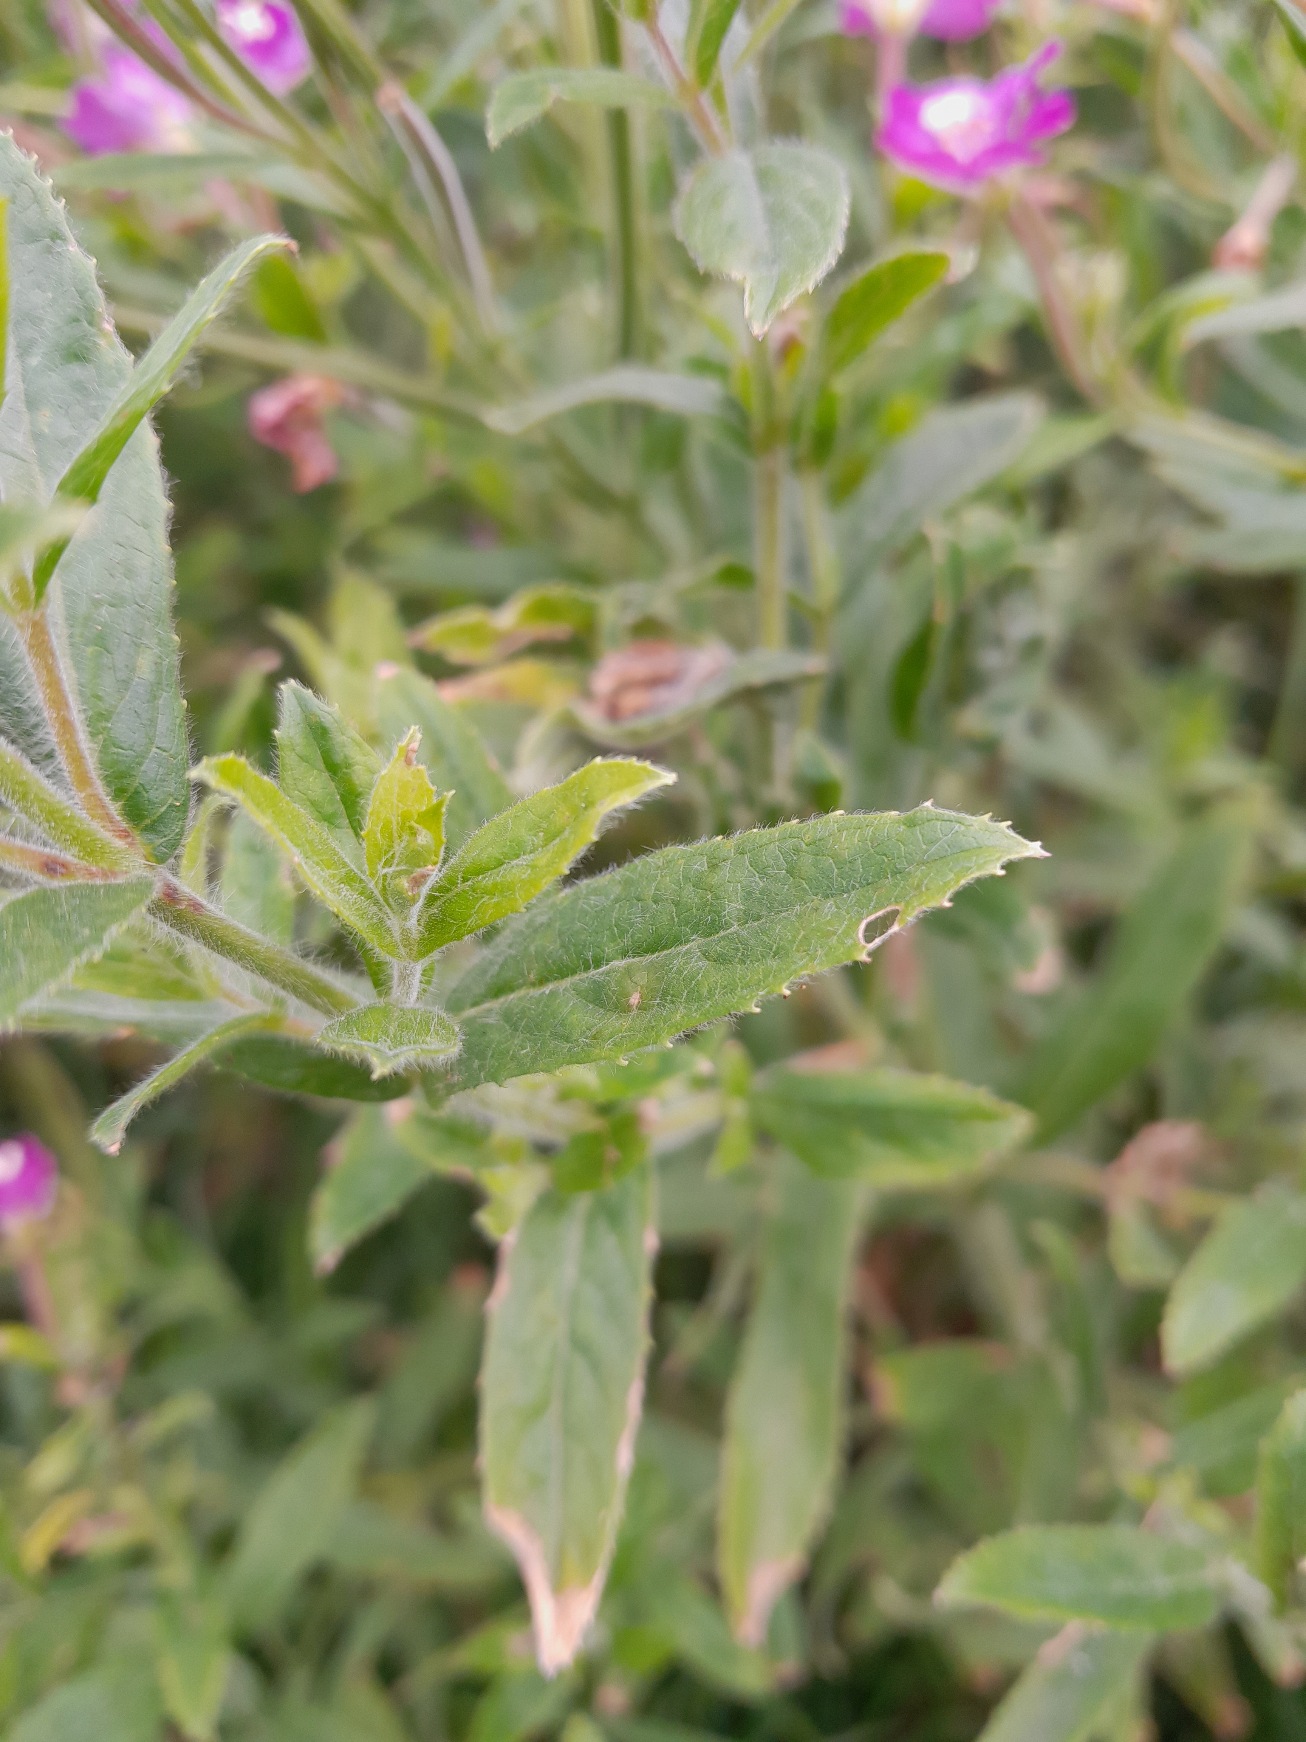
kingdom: Plantae
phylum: Tracheophyta
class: Magnoliopsida
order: Myrtales
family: Onagraceae
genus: Epilobium
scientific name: Epilobium hirsutum
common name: Lådden dueurt
